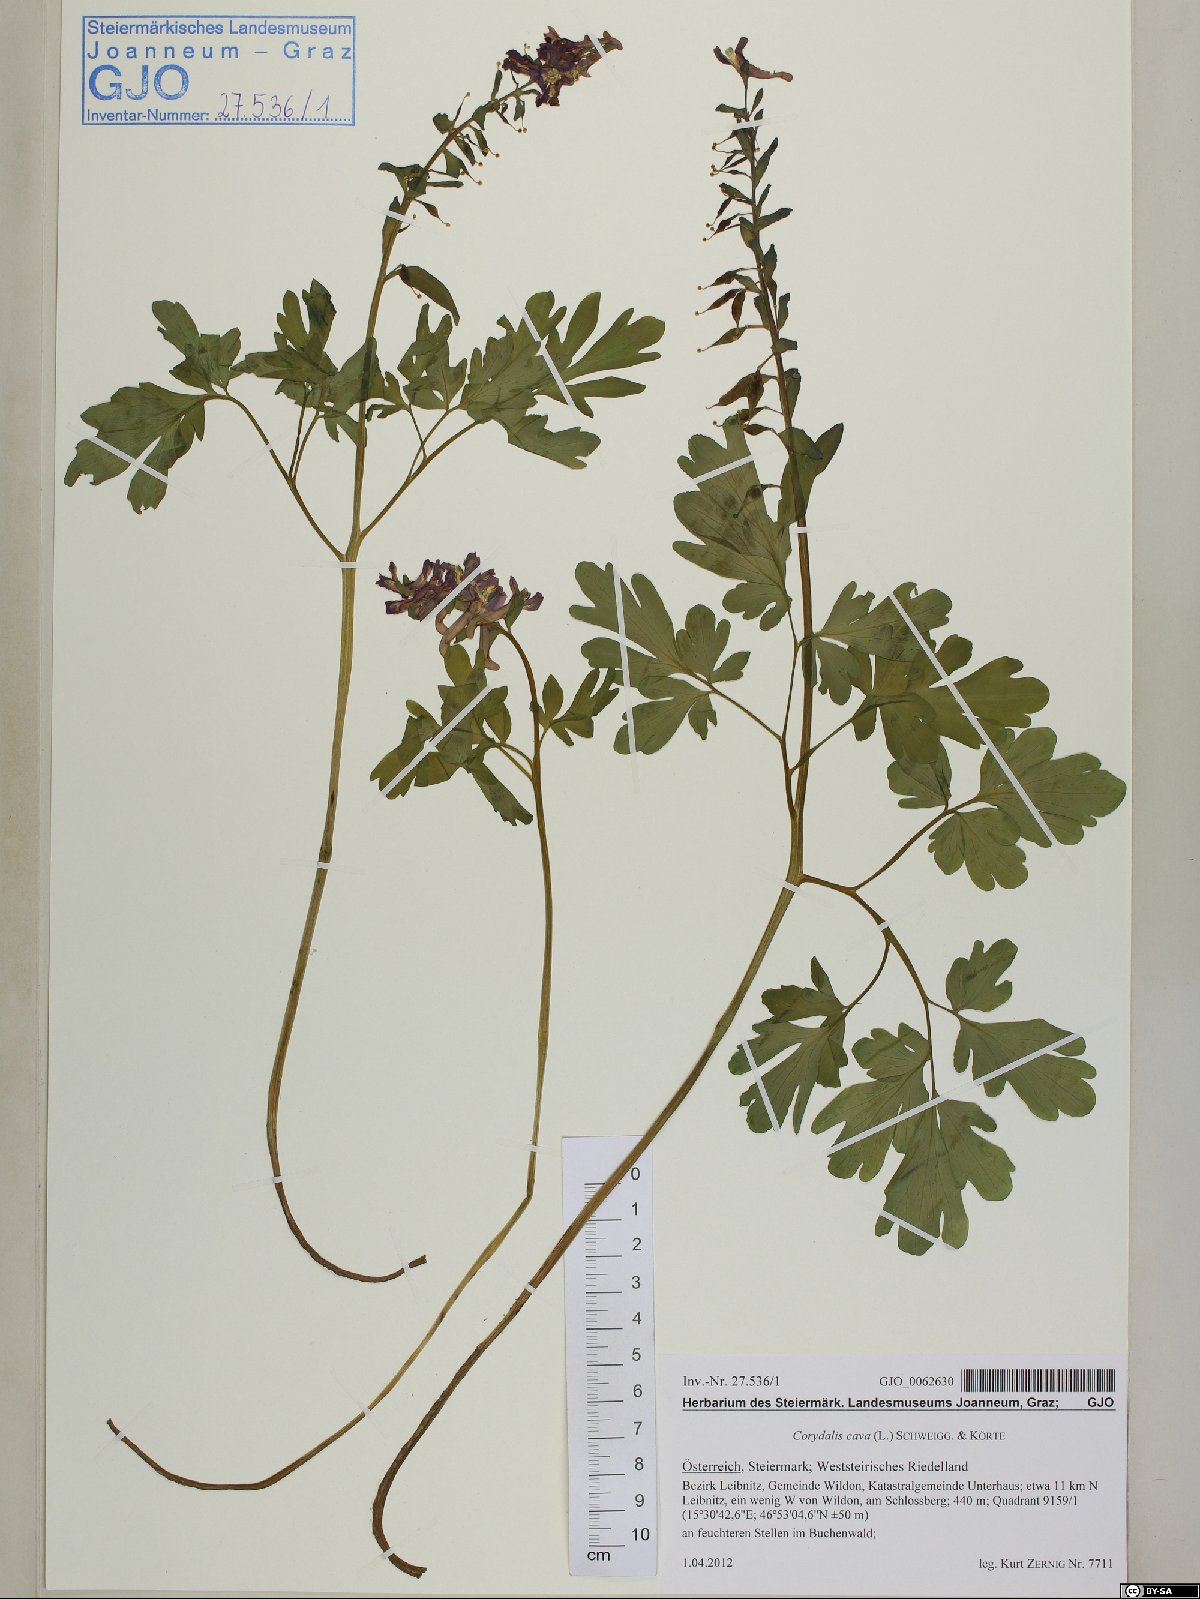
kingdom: Plantae
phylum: Tracheophyta
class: Magnoliopsida
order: Ranunculales
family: Papaveraceae
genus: Corydalis
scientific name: Corydalis cava
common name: Hollowroot
